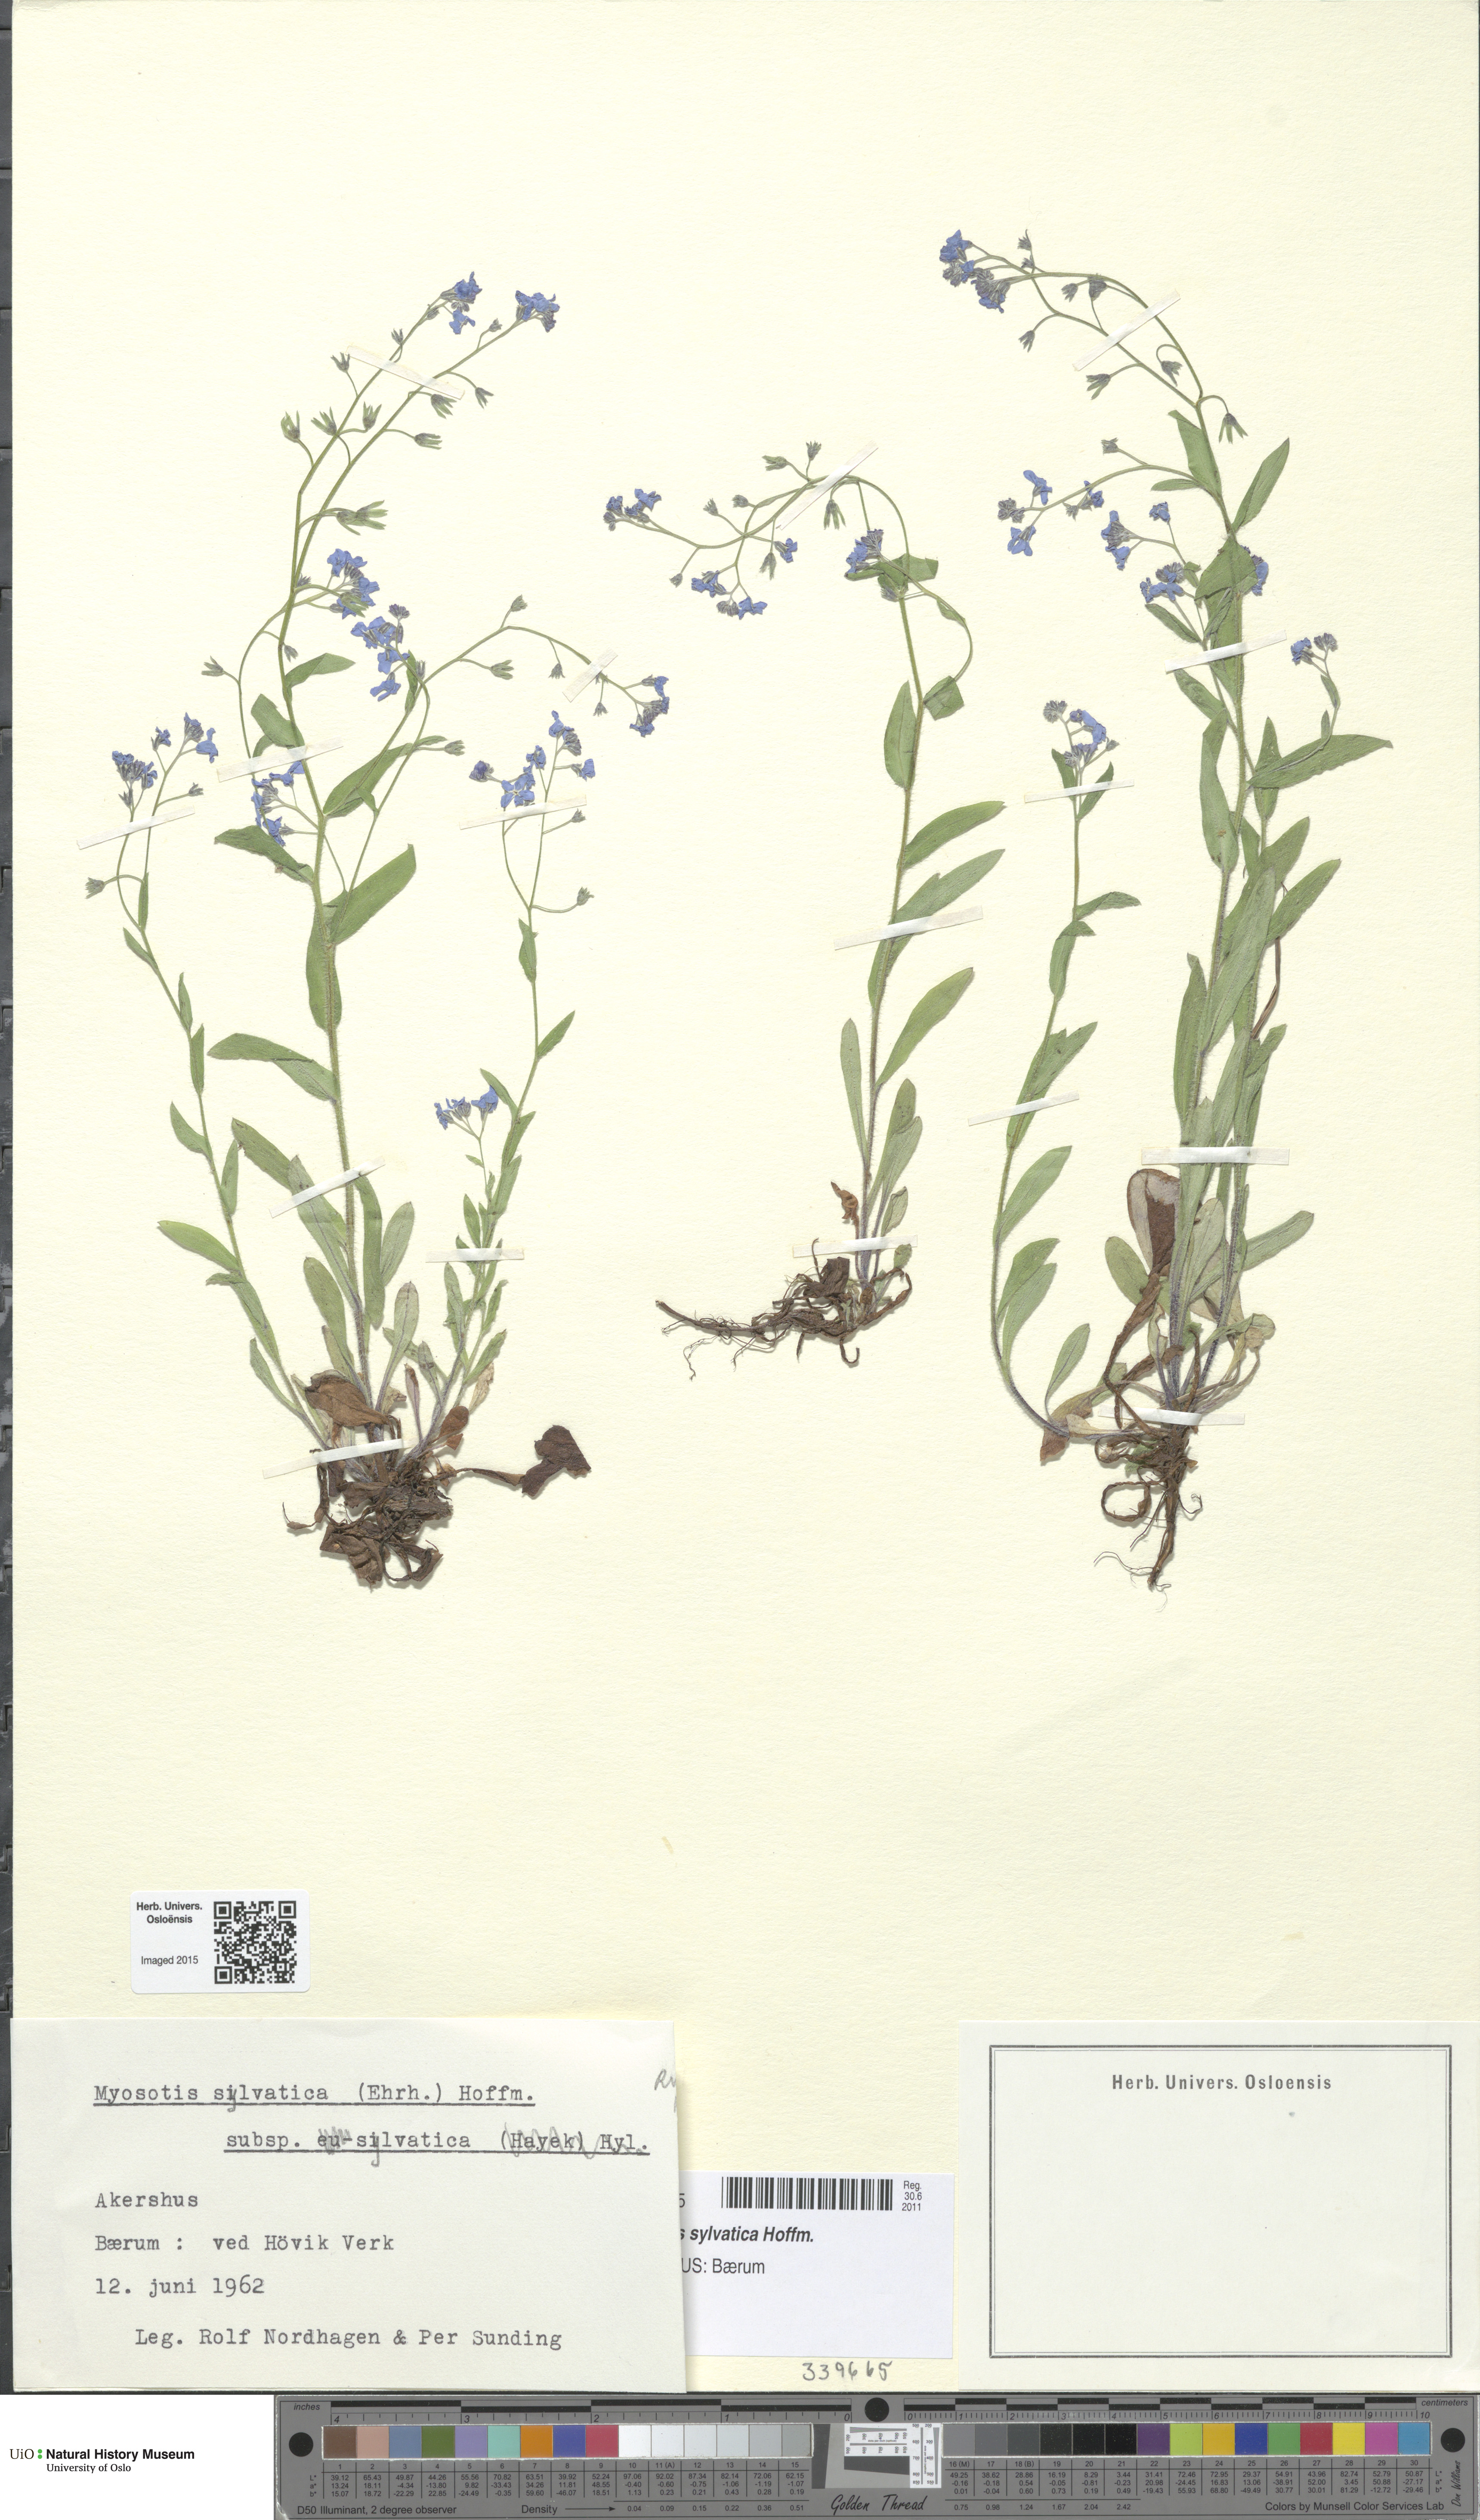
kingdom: Plantae
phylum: Tracheophyta
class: Magnoliopsida
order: Boraginales
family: Boraginaceae
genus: Myosotis
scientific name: Myosotis sylvatica
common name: Wood forget-me-not
